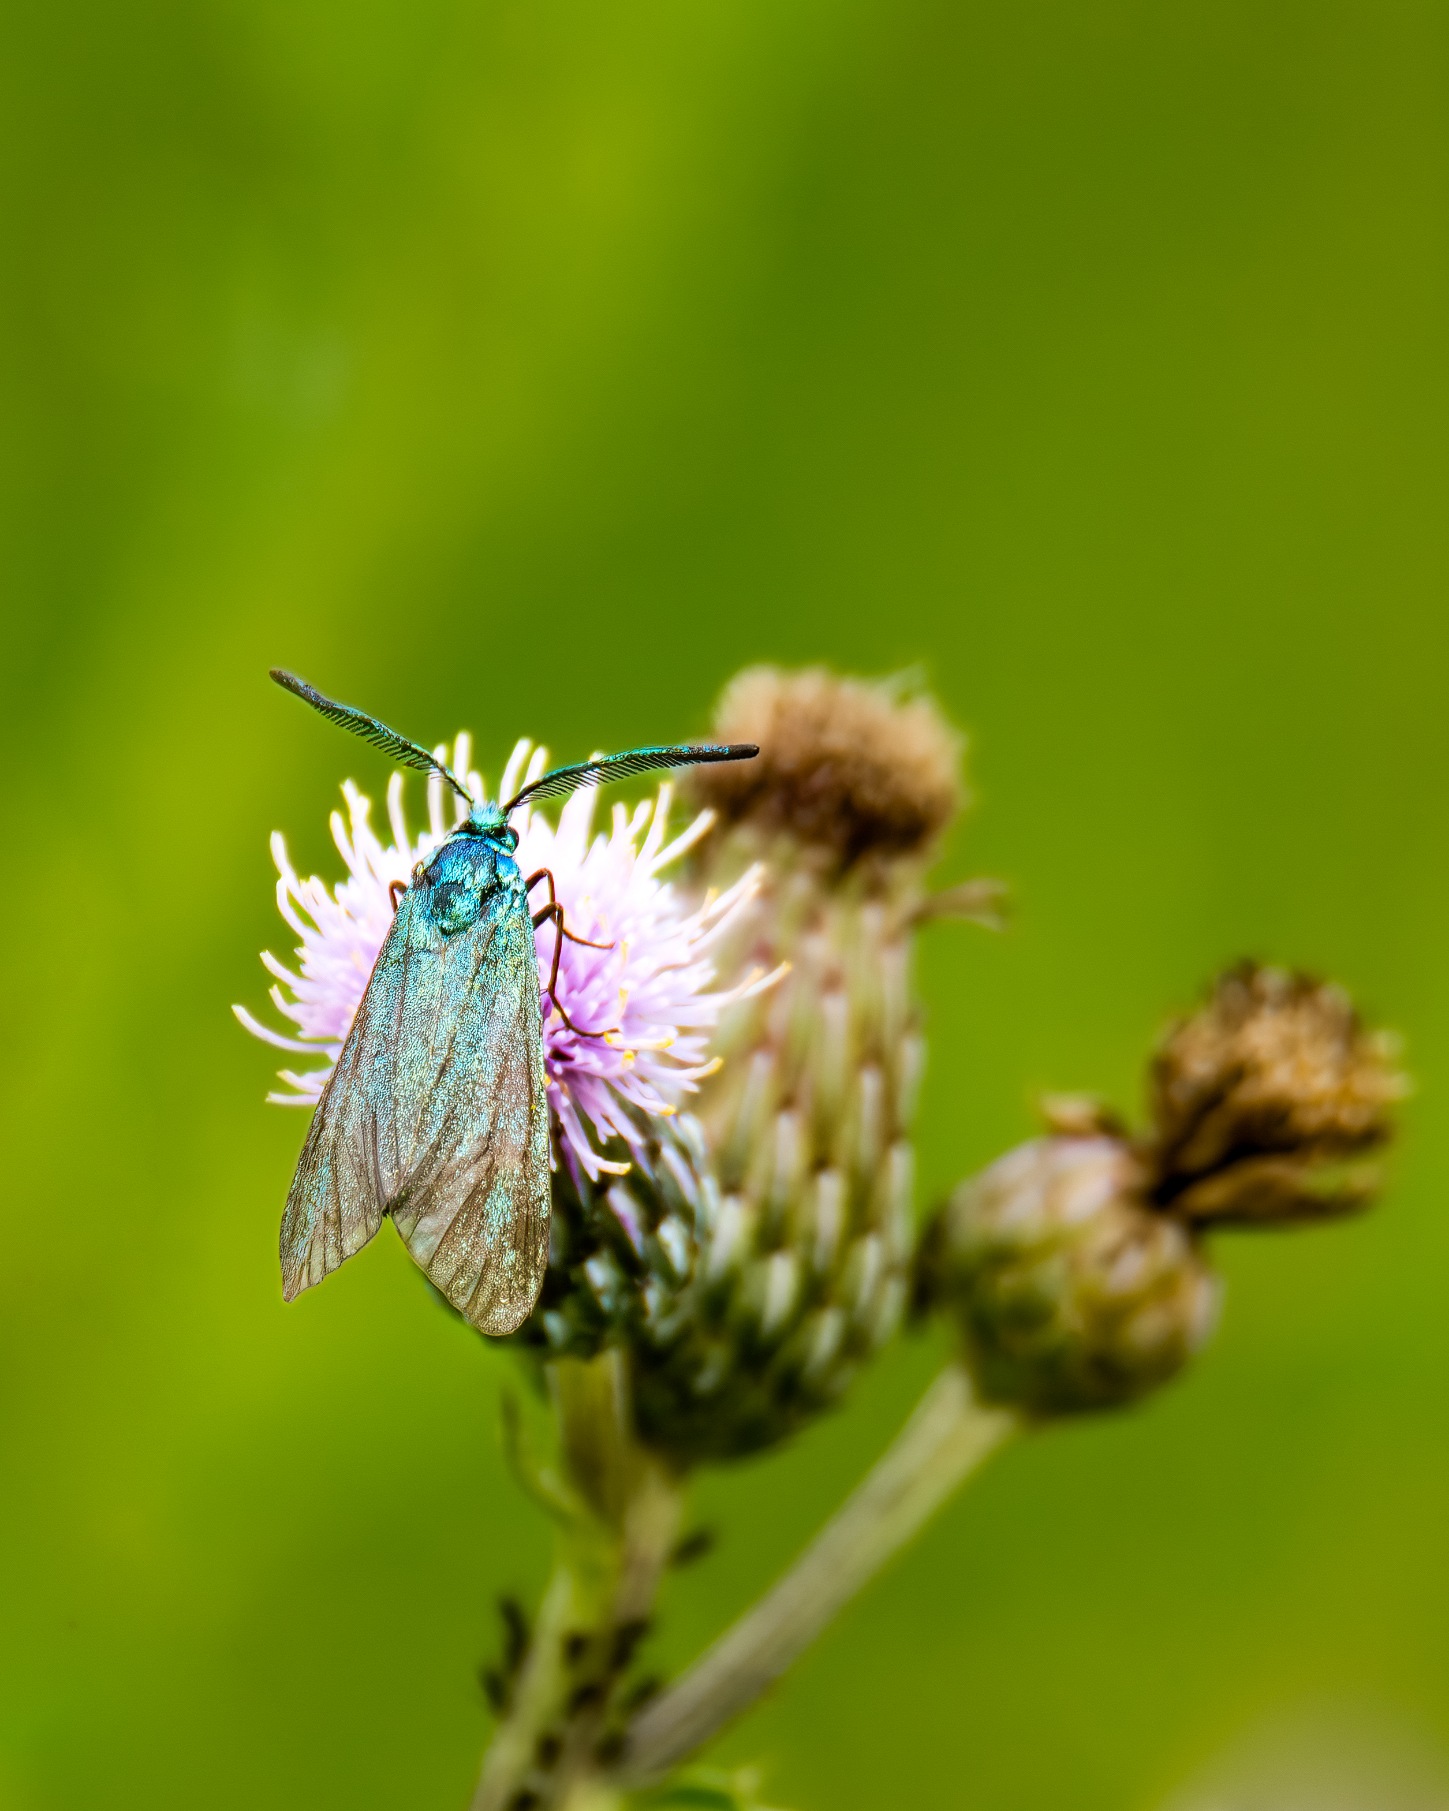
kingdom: Animalia
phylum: Arthropoda
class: Insecta
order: Lepidoptera
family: Zygaenidae
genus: Adscita
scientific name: Adscita statices
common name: Metalvinge
